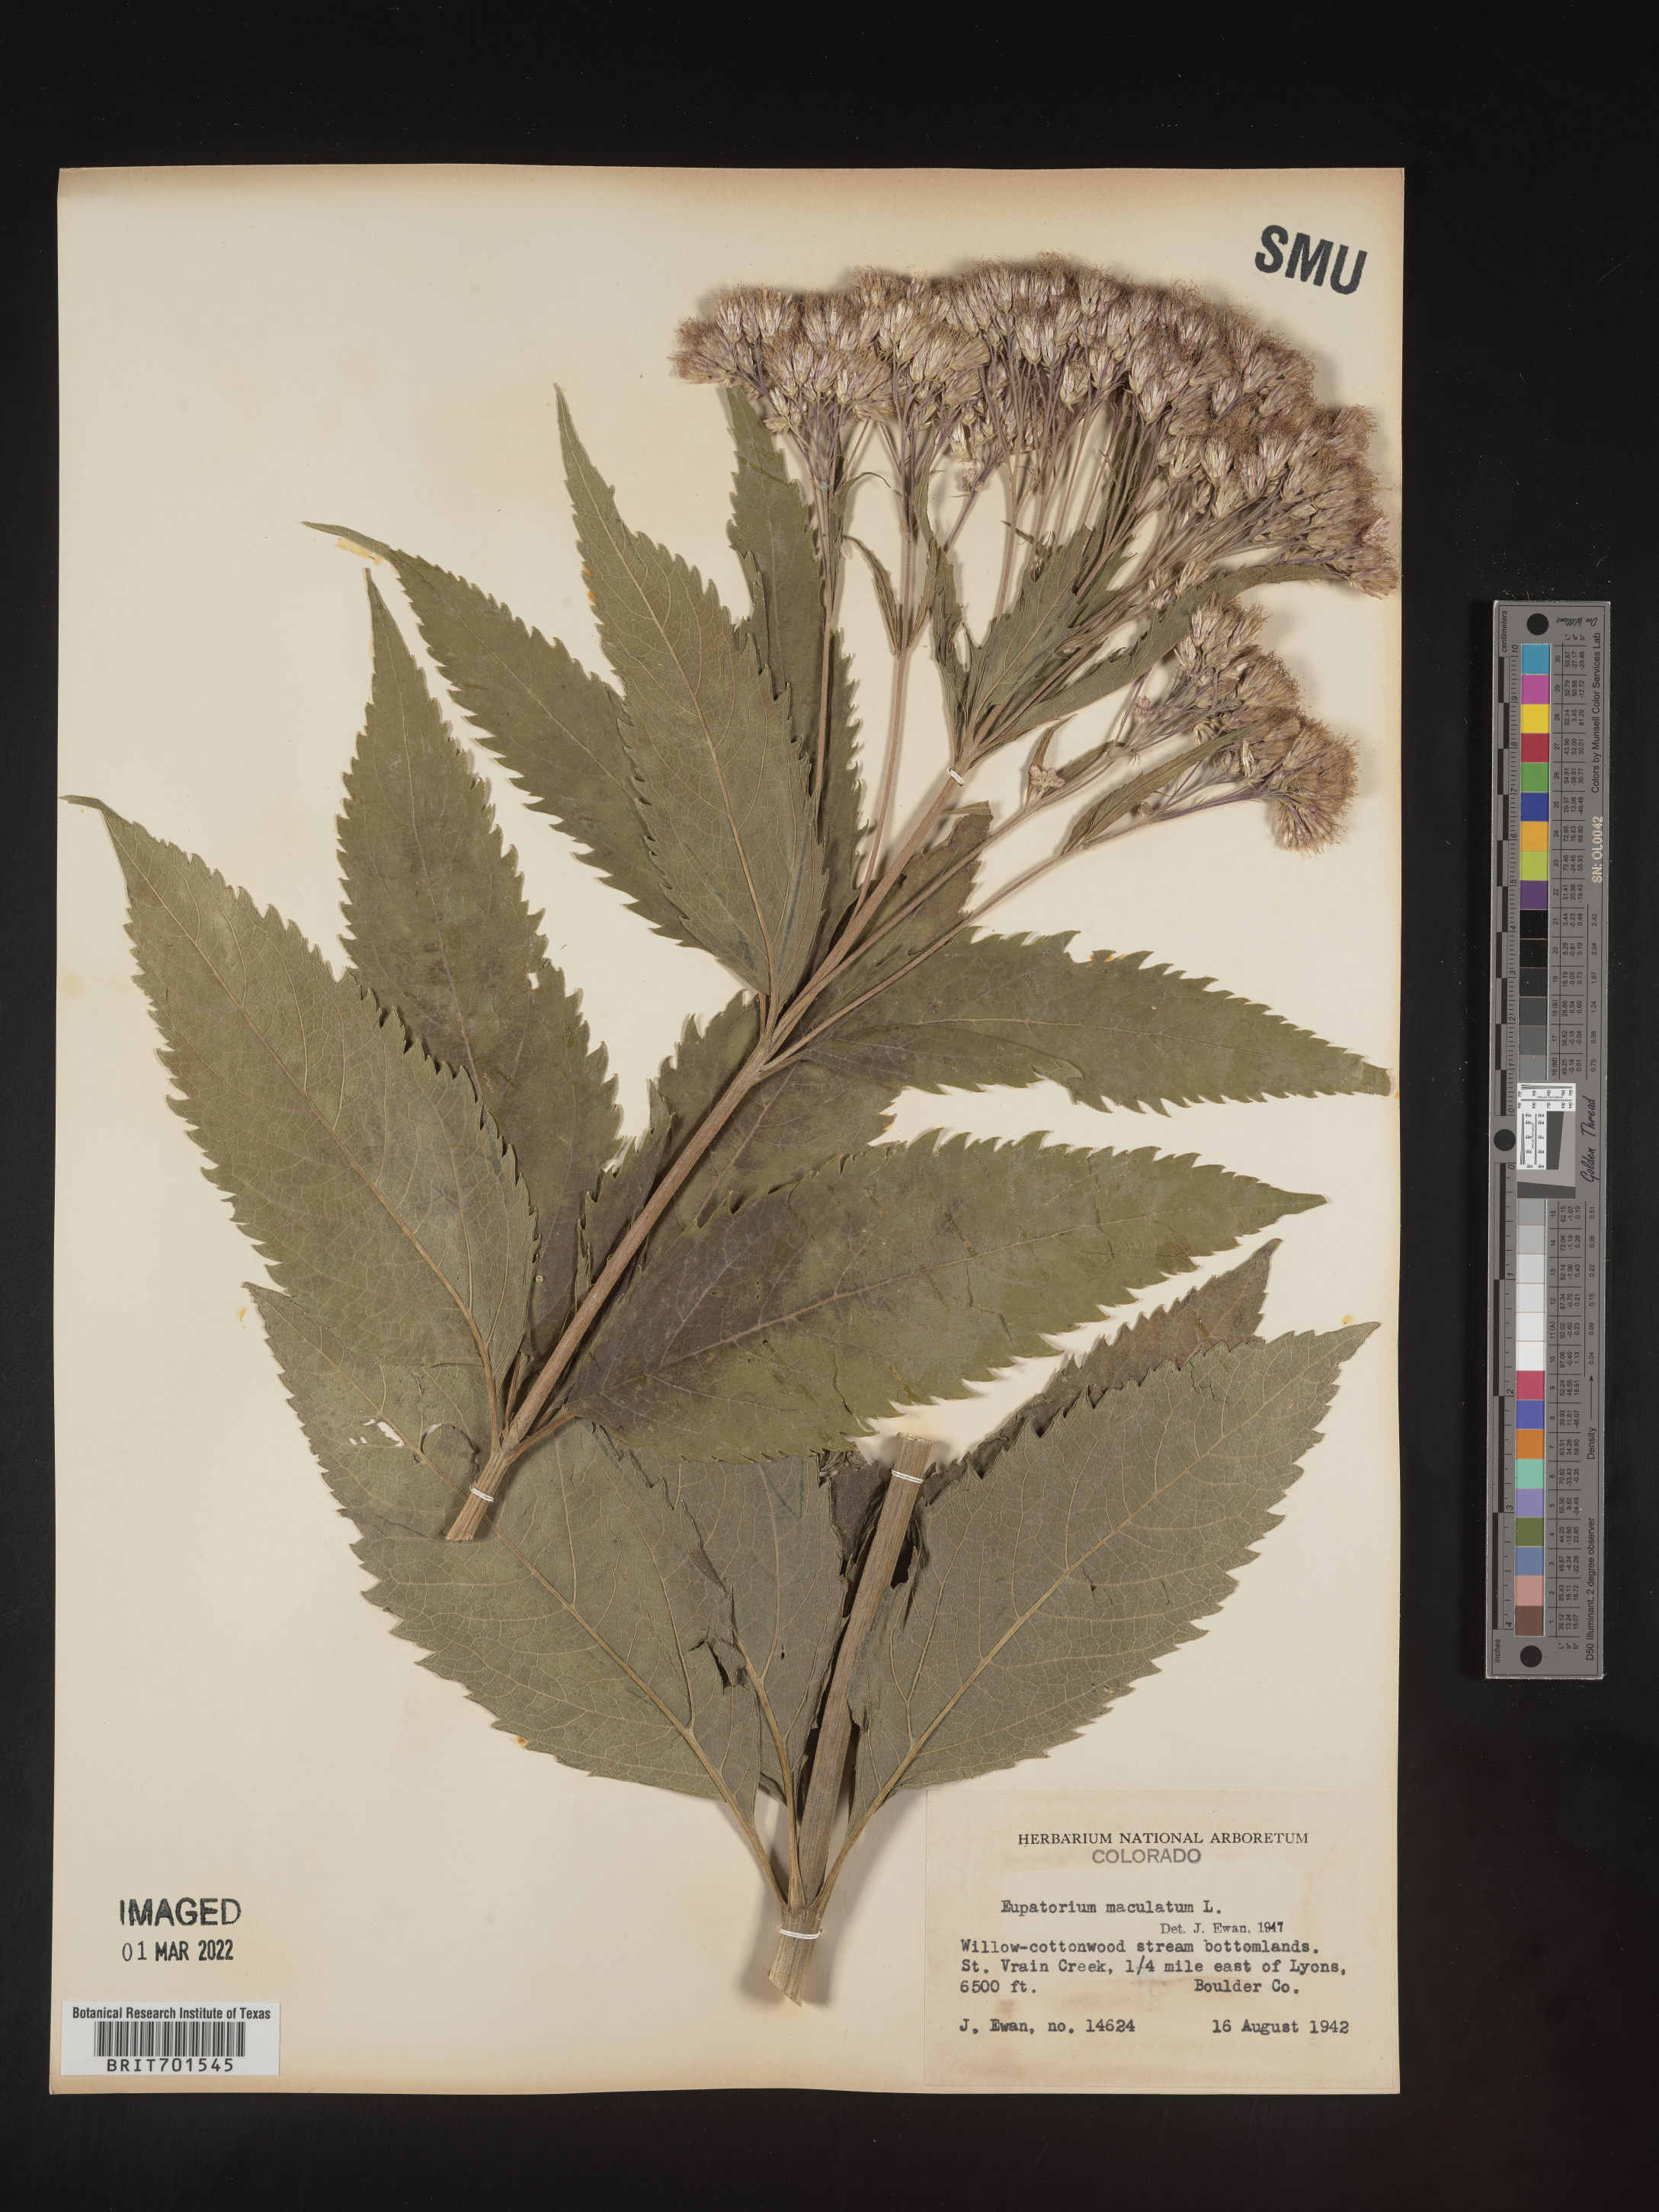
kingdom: Plantae
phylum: Tracheophyta
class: Magnoliopsida
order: Asterales
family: Asteraceae
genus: Eutrochium
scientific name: Eutrochium maculatum
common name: Spotted joe pye weed
